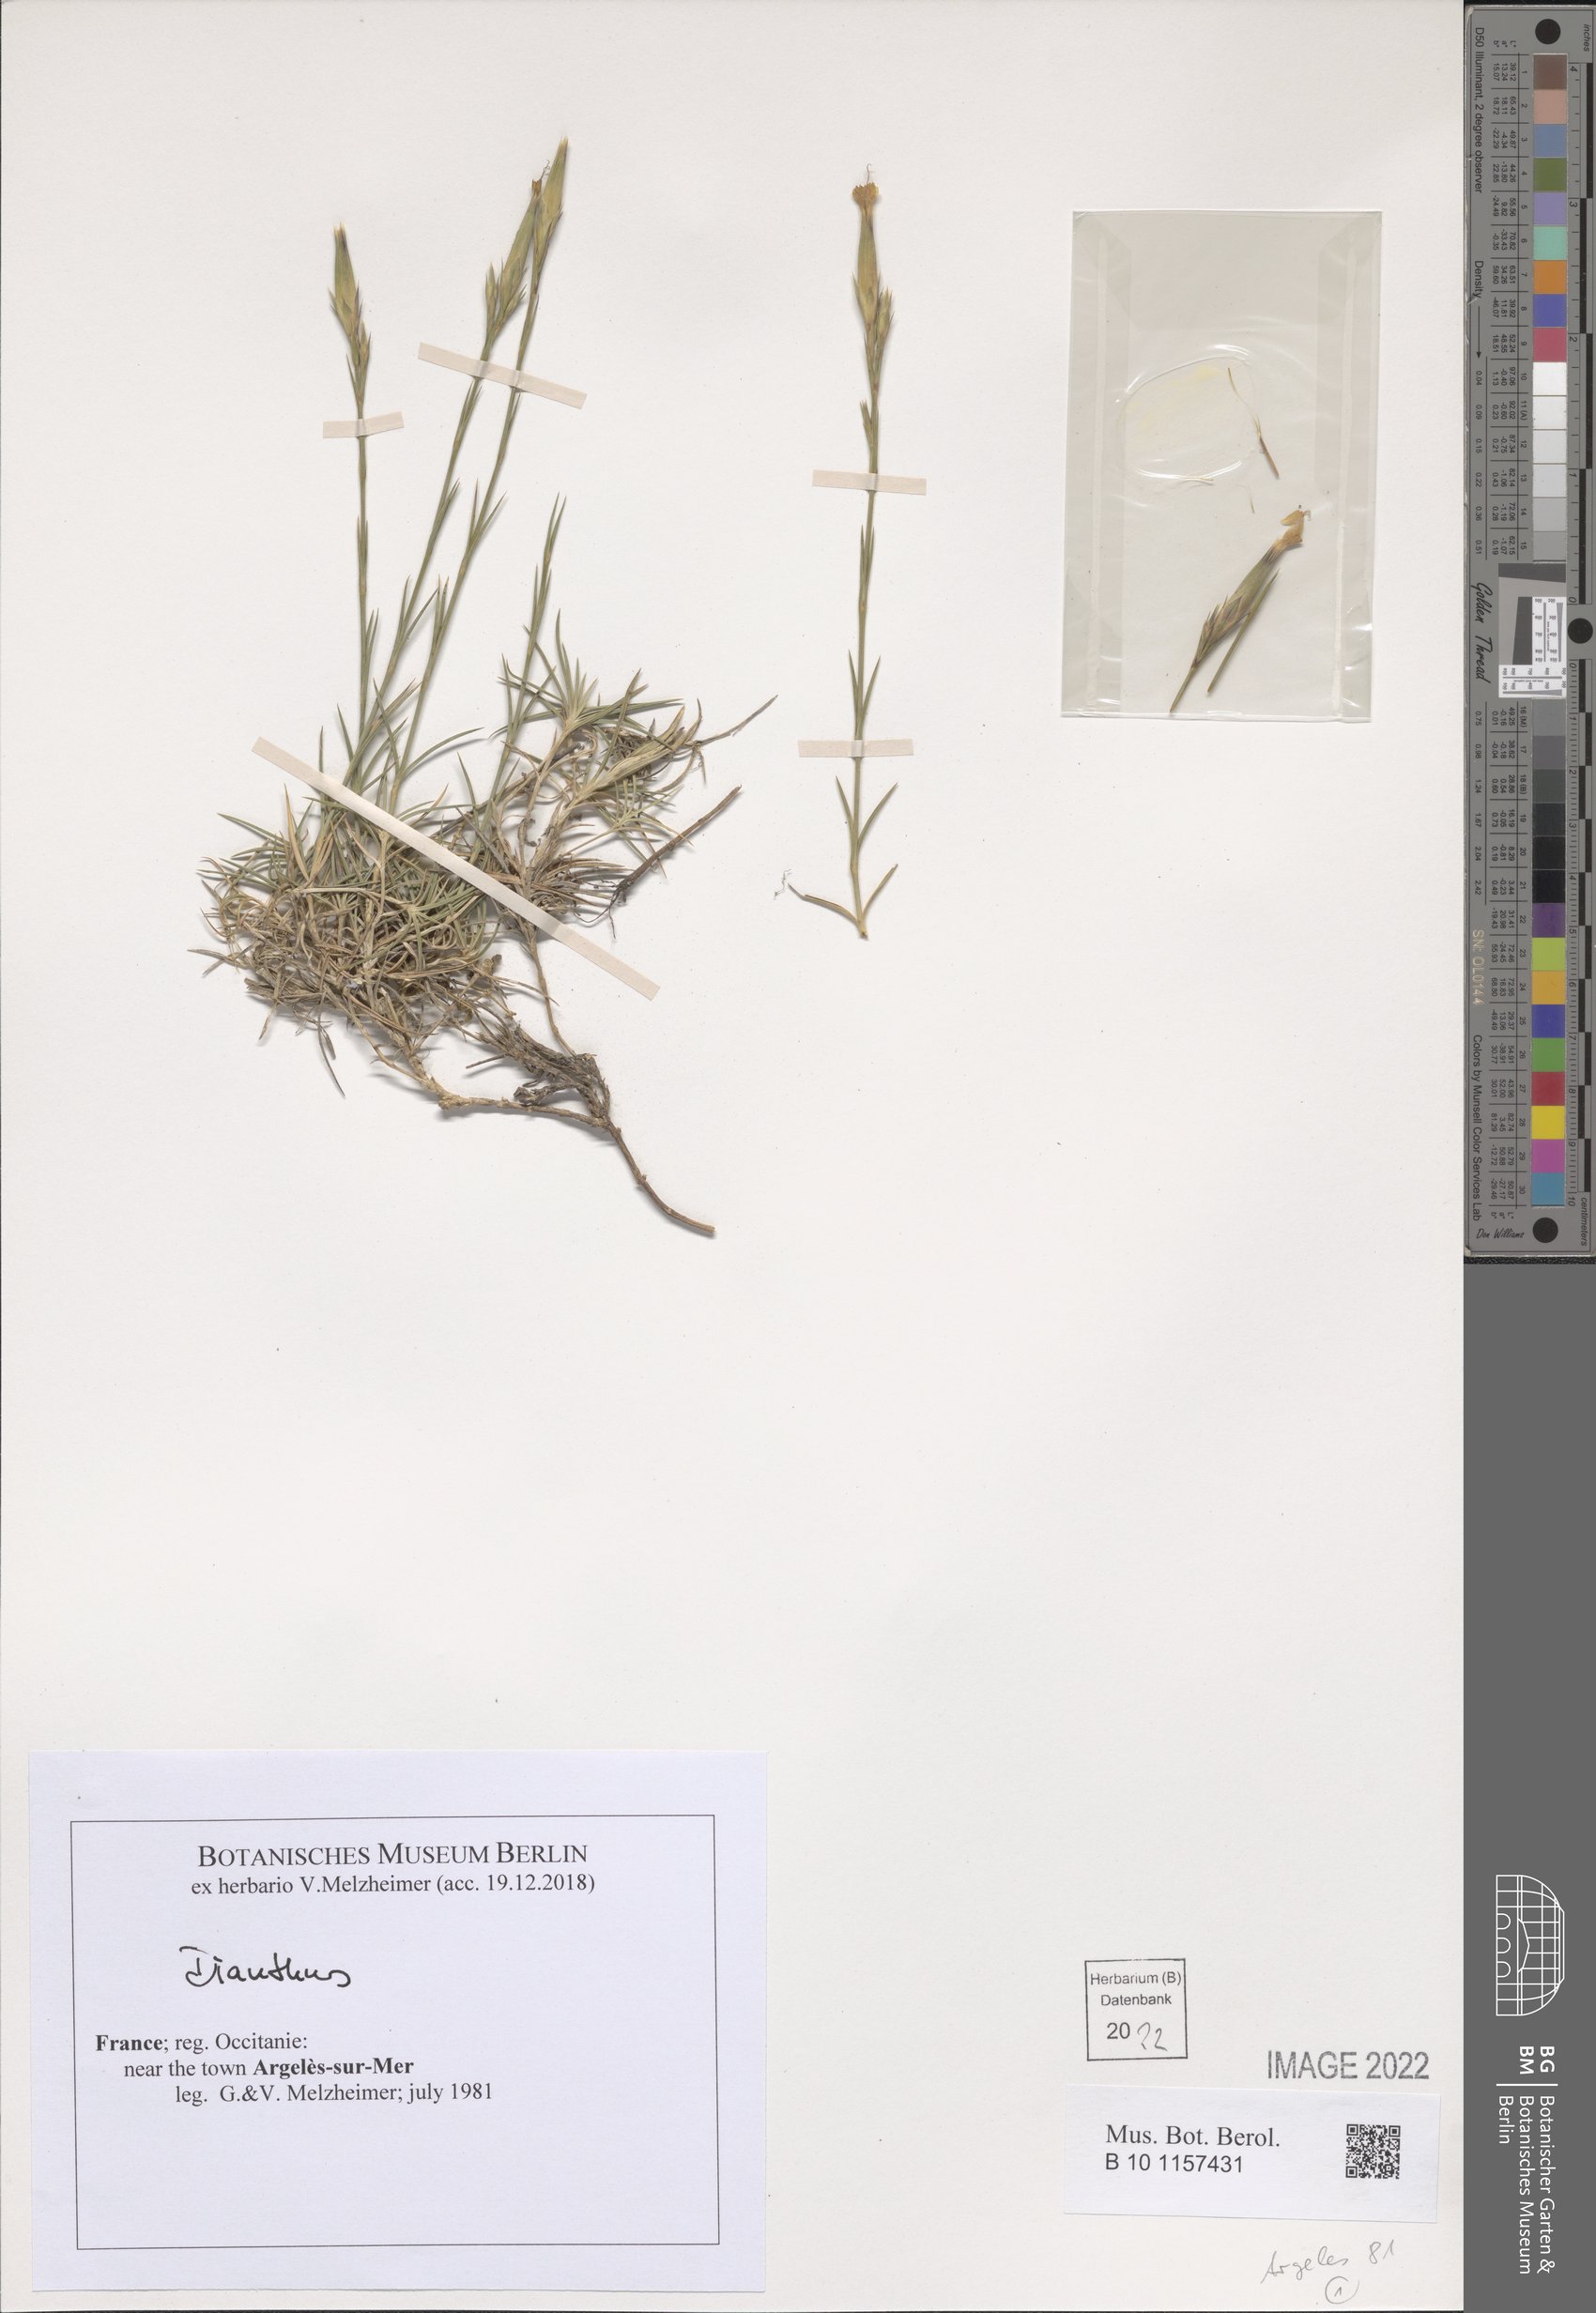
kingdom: Plantae
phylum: Tracheophyta
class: Magnoliopsida
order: Caryophyllales
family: Caryophyllaceae
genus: Dianthus
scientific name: Dianthus
